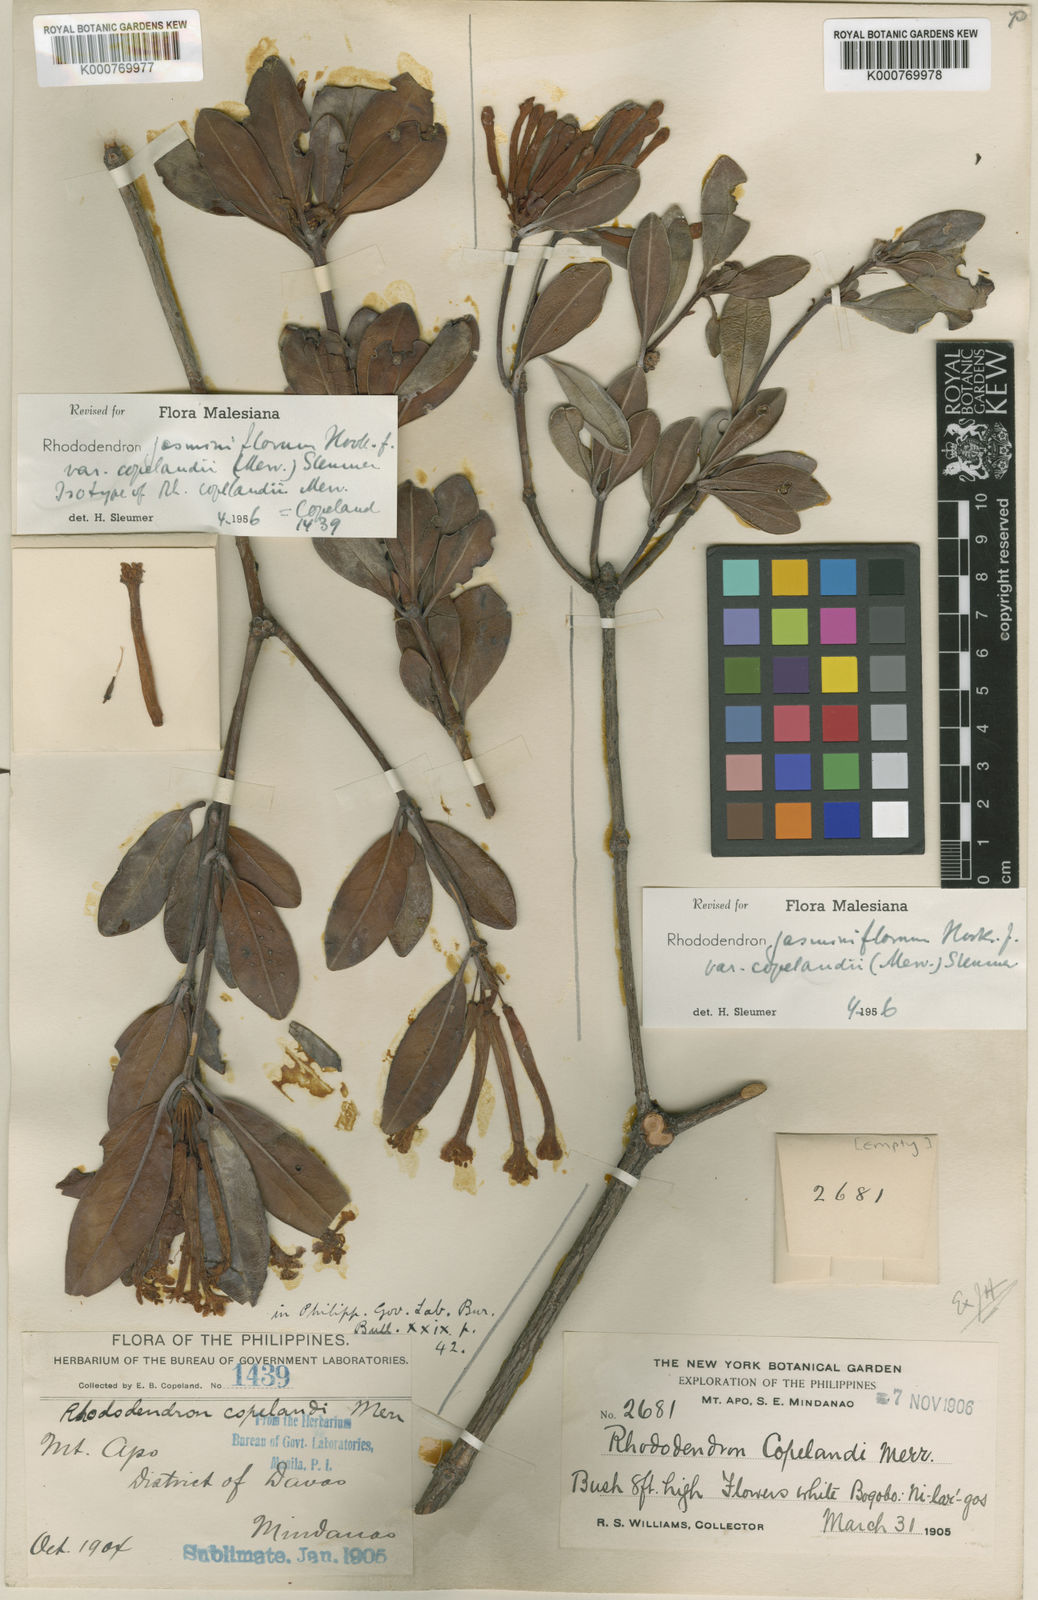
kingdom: Plantae
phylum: Tracheophyta
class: Magnoliopsida
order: Ericales
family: Ericaceae
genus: Rhododendron
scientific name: Rhododendron jasminiflorum
